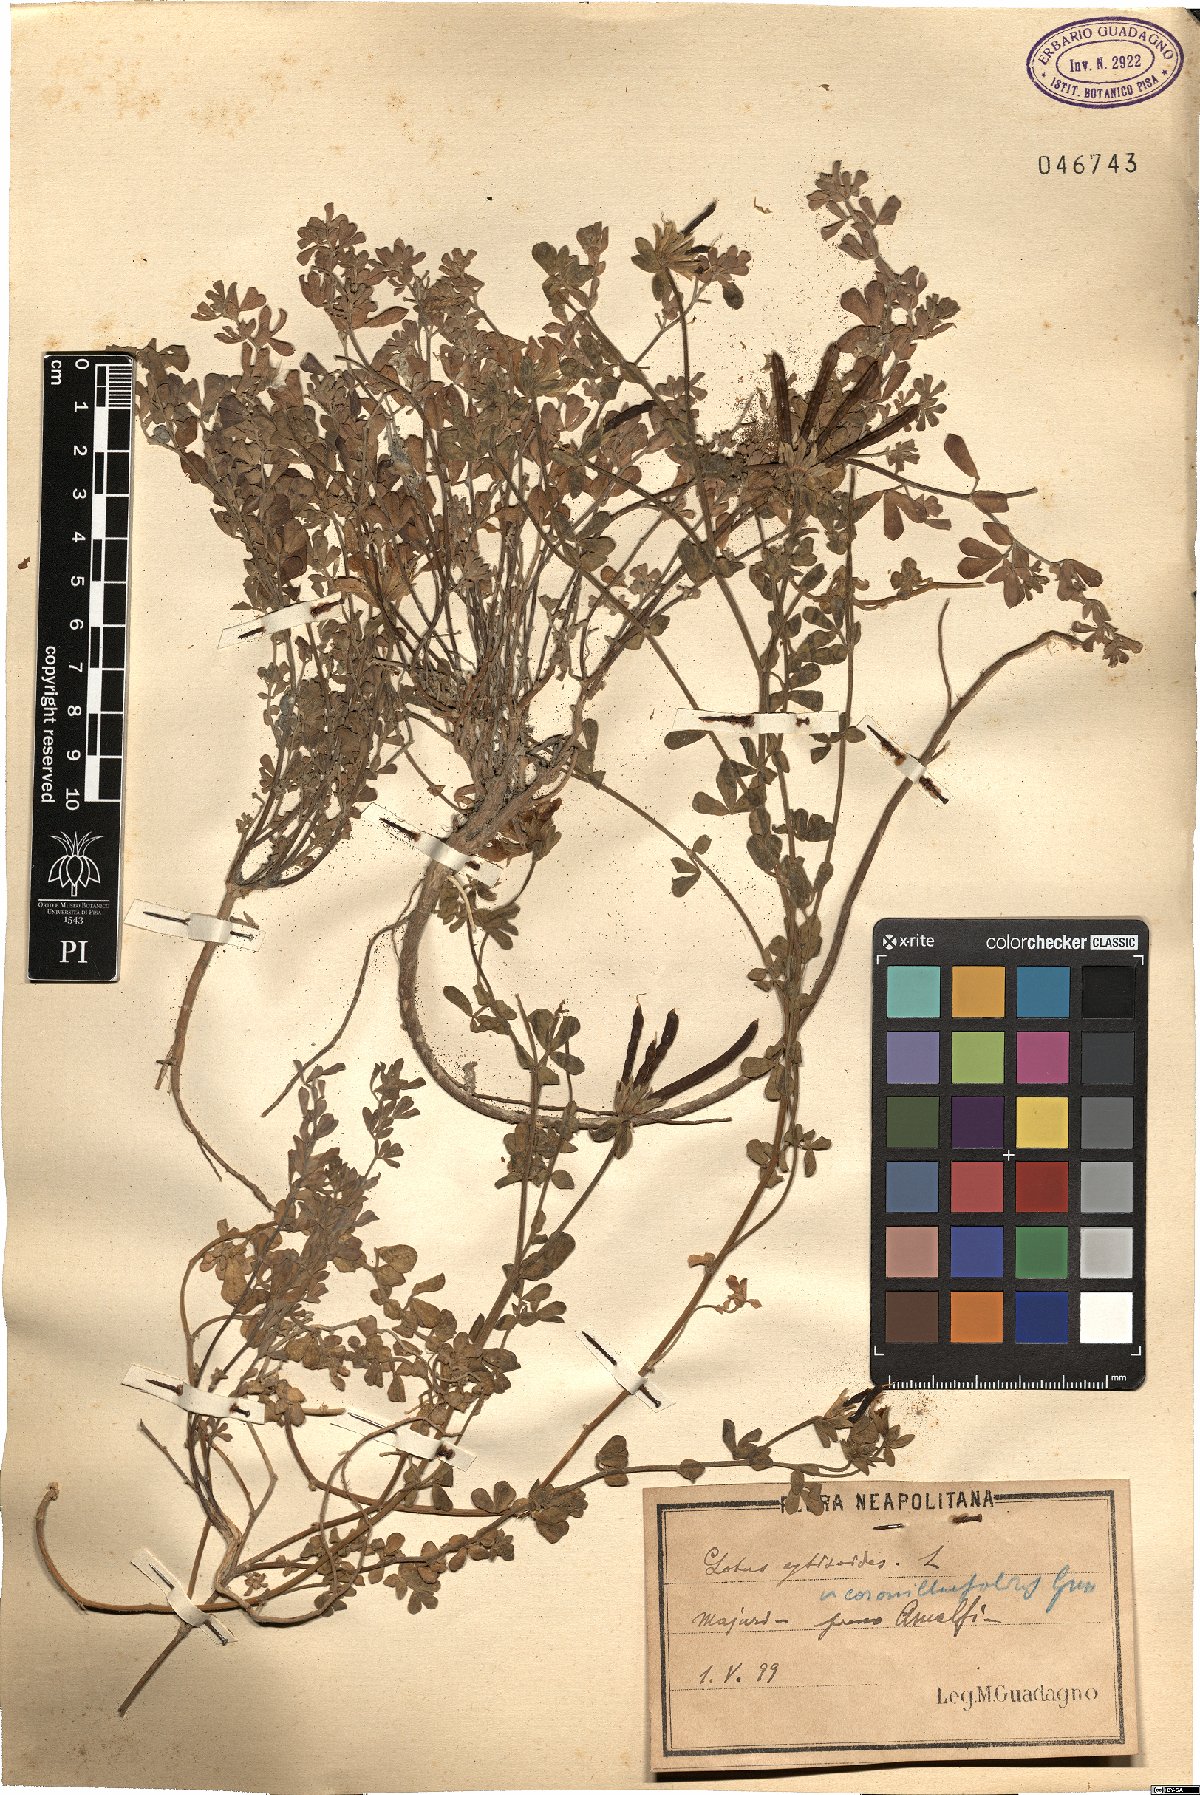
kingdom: Plantae
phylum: Tracheophyta
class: Magnoliopsida
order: Fabales
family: Fabaceae
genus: Lotus
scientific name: Lotus cytisoides
